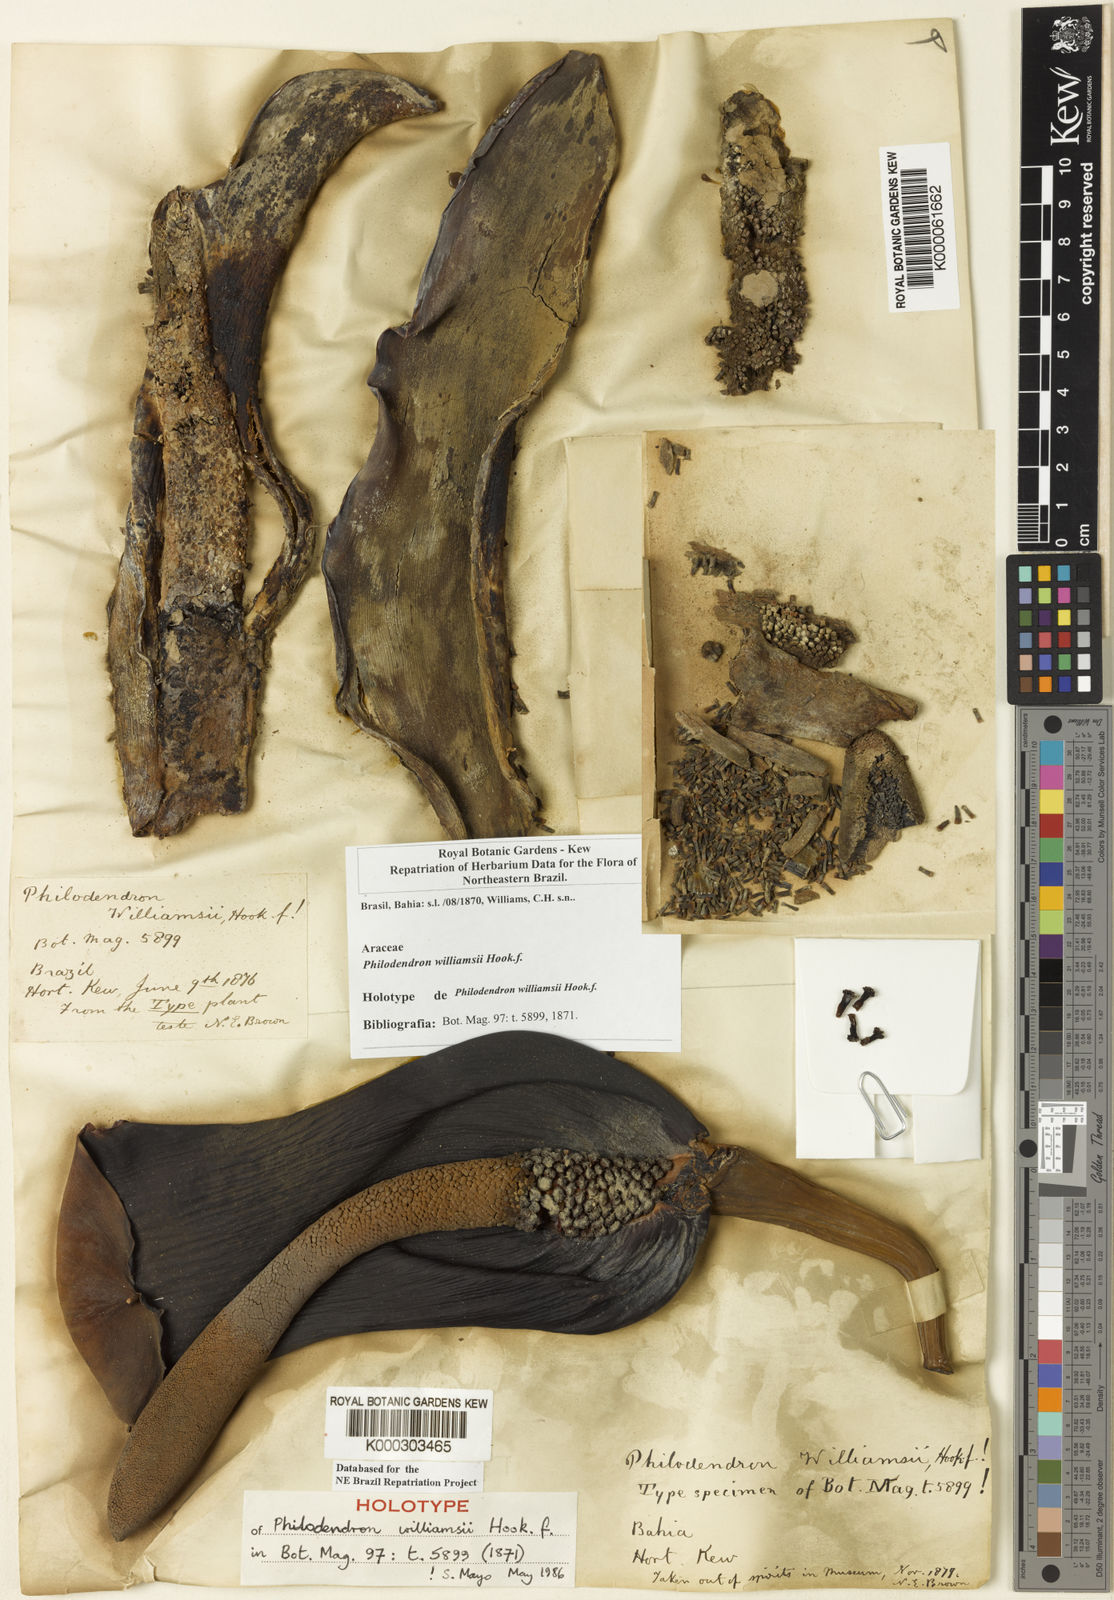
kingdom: Plantae
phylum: Tracheophyta
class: Liliopsida
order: Alismatales
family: Araceae
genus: Thaumatophyllum
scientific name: Thaumatophyllum williamsii
